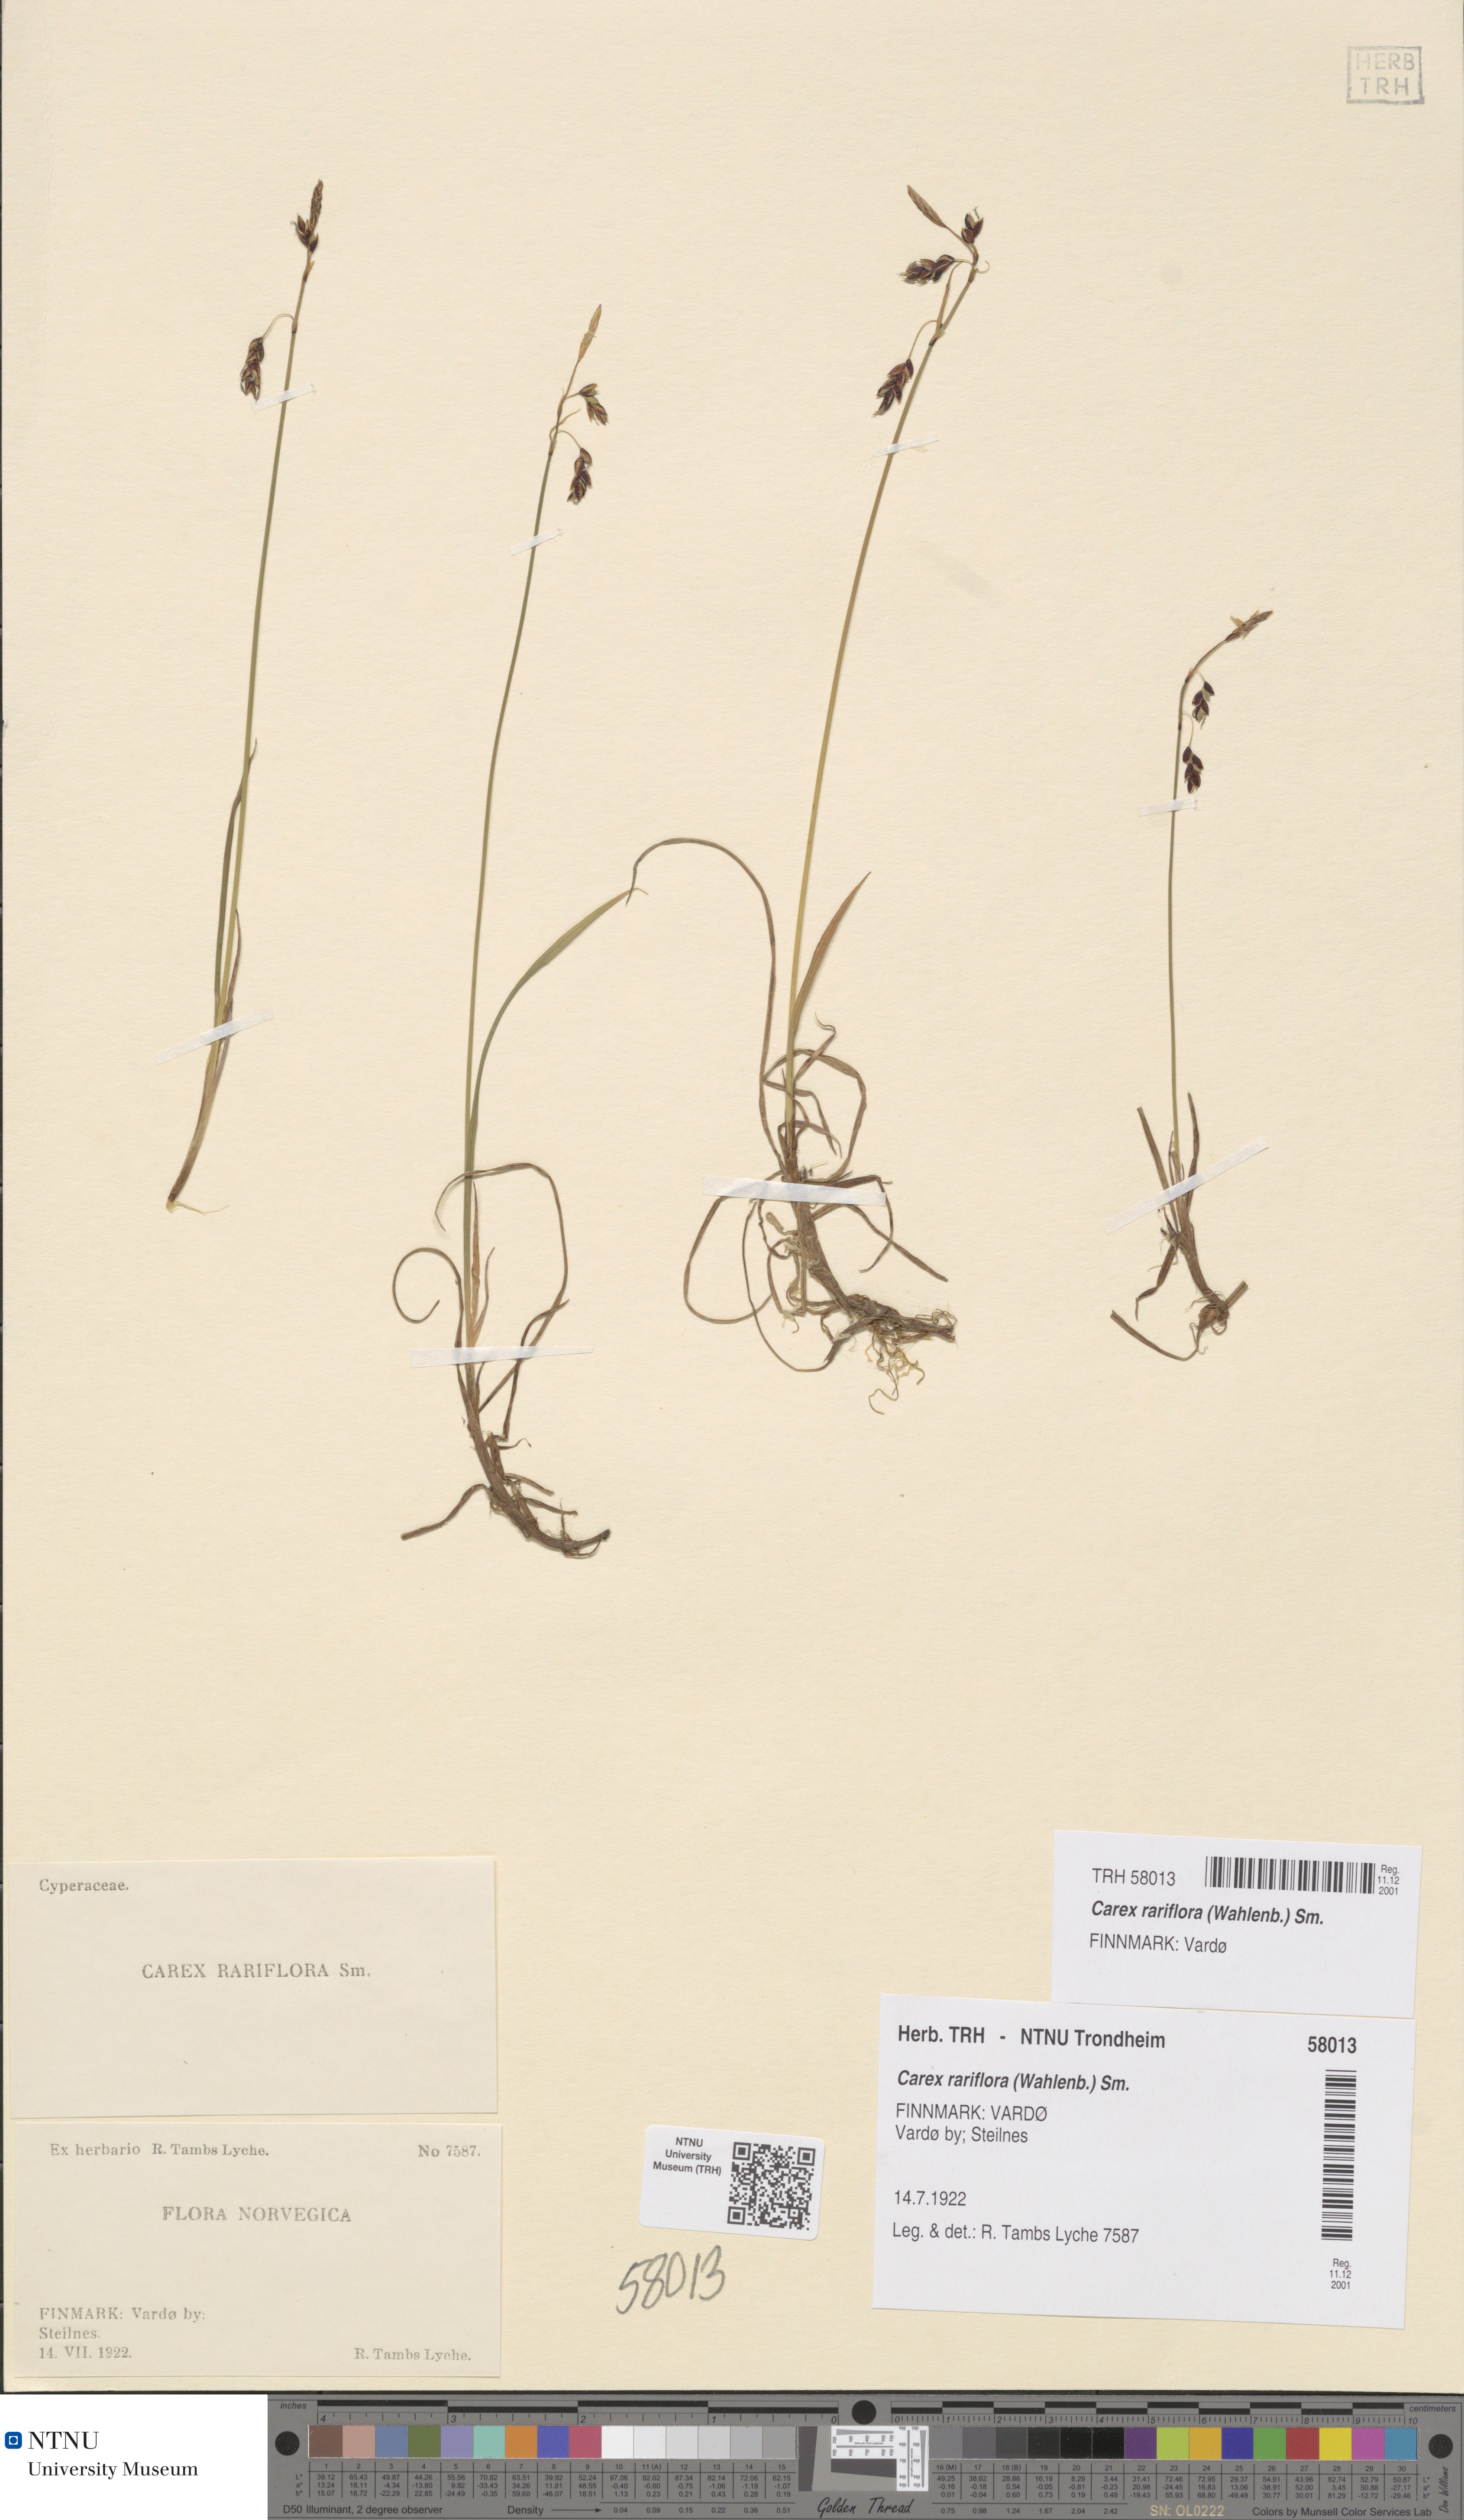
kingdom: Plantae
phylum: Tracheophyta
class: Liliopsida
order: Poales
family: Cyperaceae
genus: Carex
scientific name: Carex rariflora
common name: Loose-flowered alpine sedge
